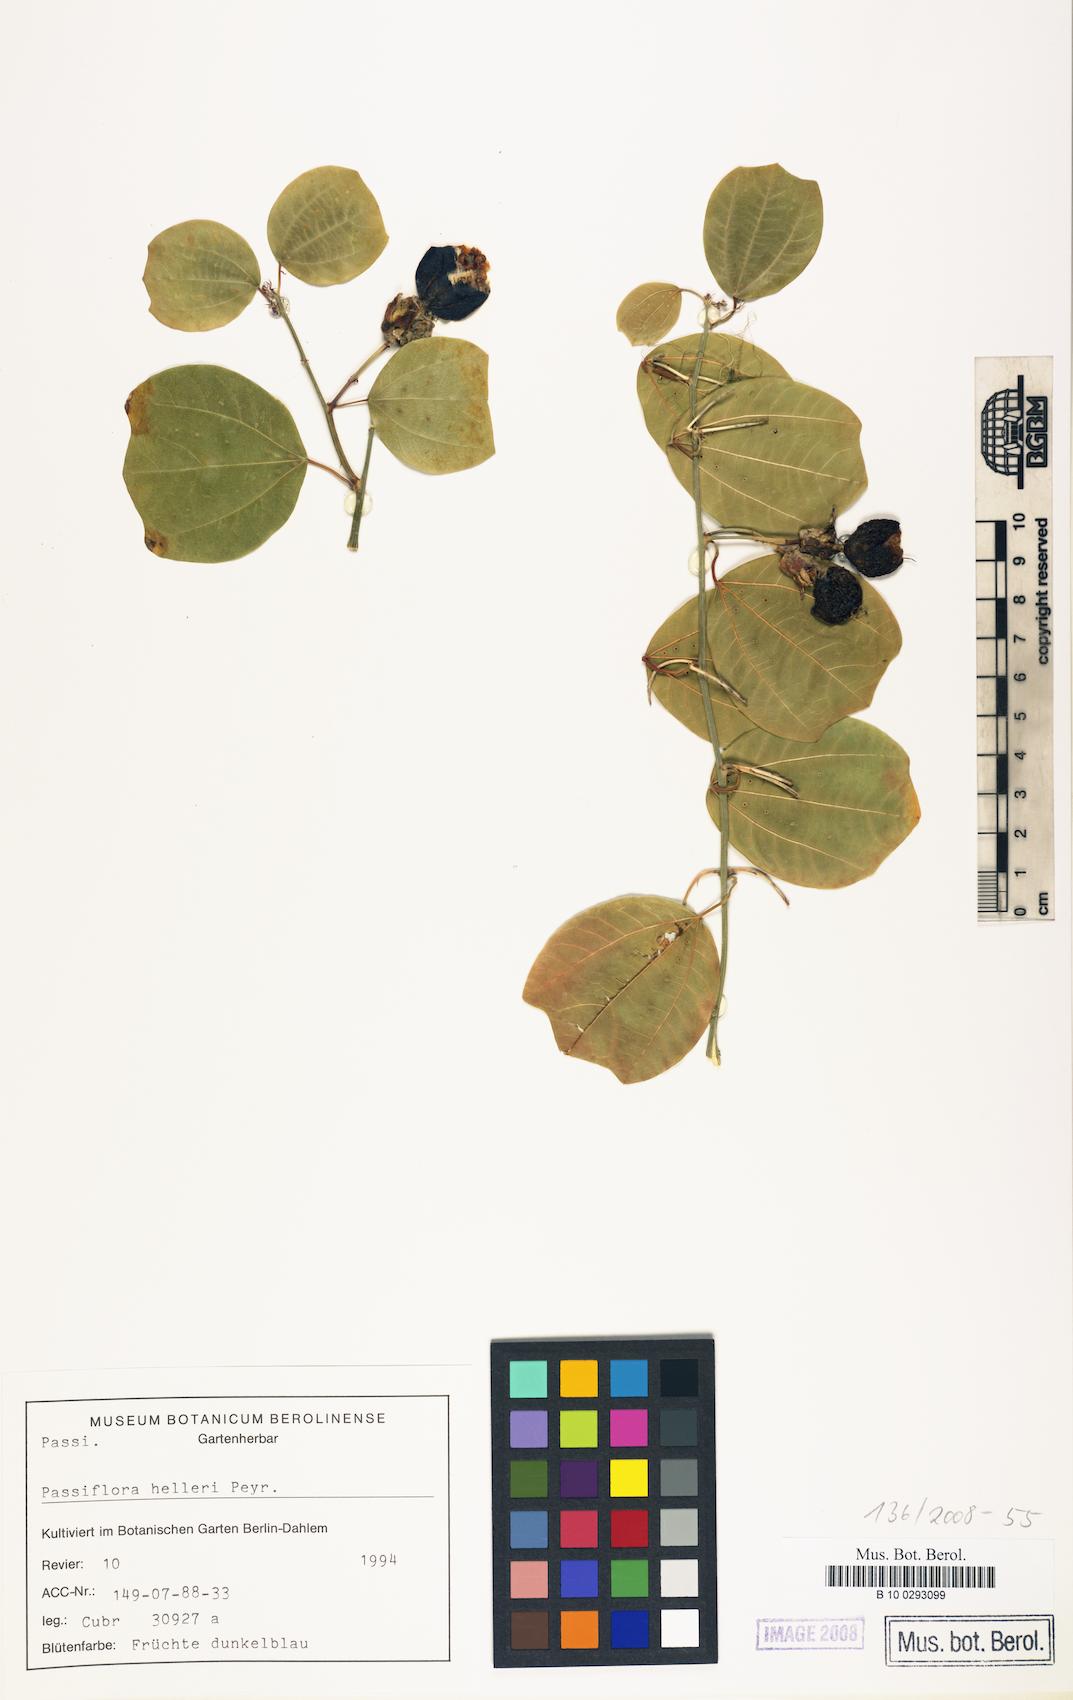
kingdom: Plantae
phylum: Tracheophyta
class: Magnoliopsida
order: Malpighiales
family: Passifloraceae
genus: Passiflora
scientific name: Passiflora helleri
